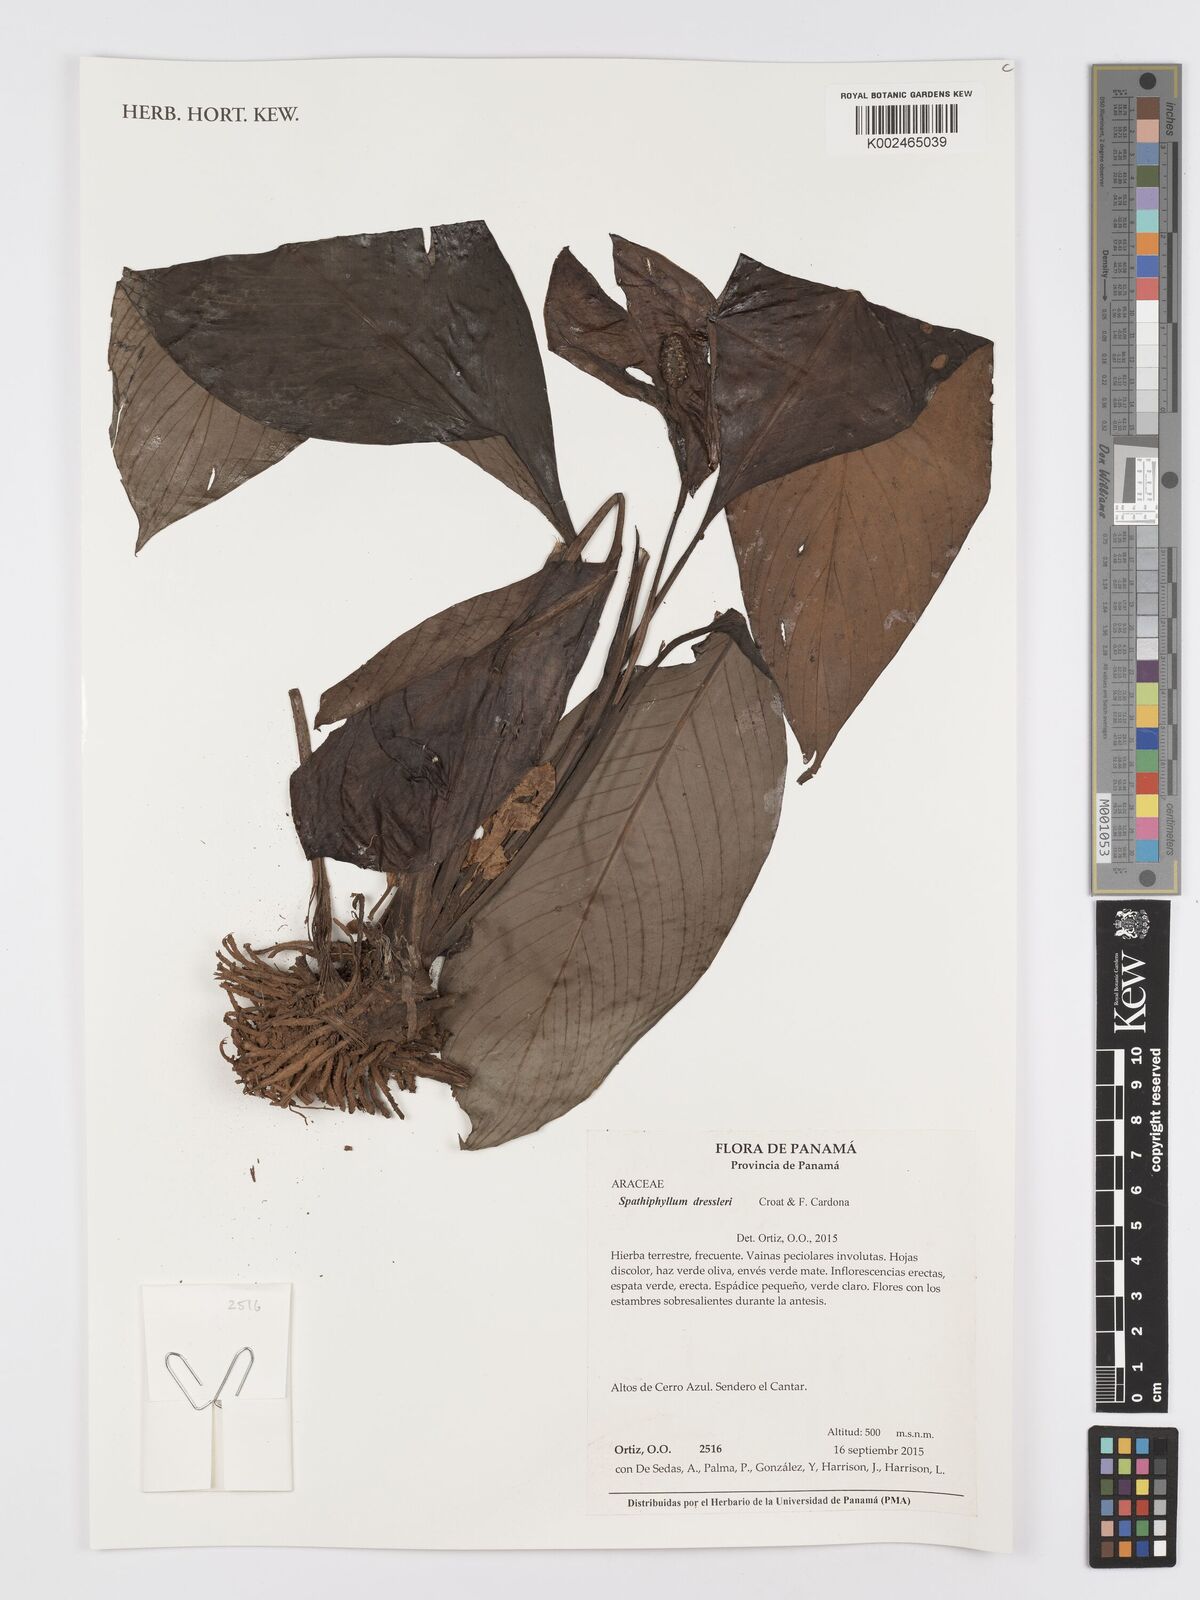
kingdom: Plantae
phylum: Tracheophyta
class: Liliopsida
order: Alismatales
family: Araceae
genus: Spathiphyllum
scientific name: Spathiphyllum dressleri
